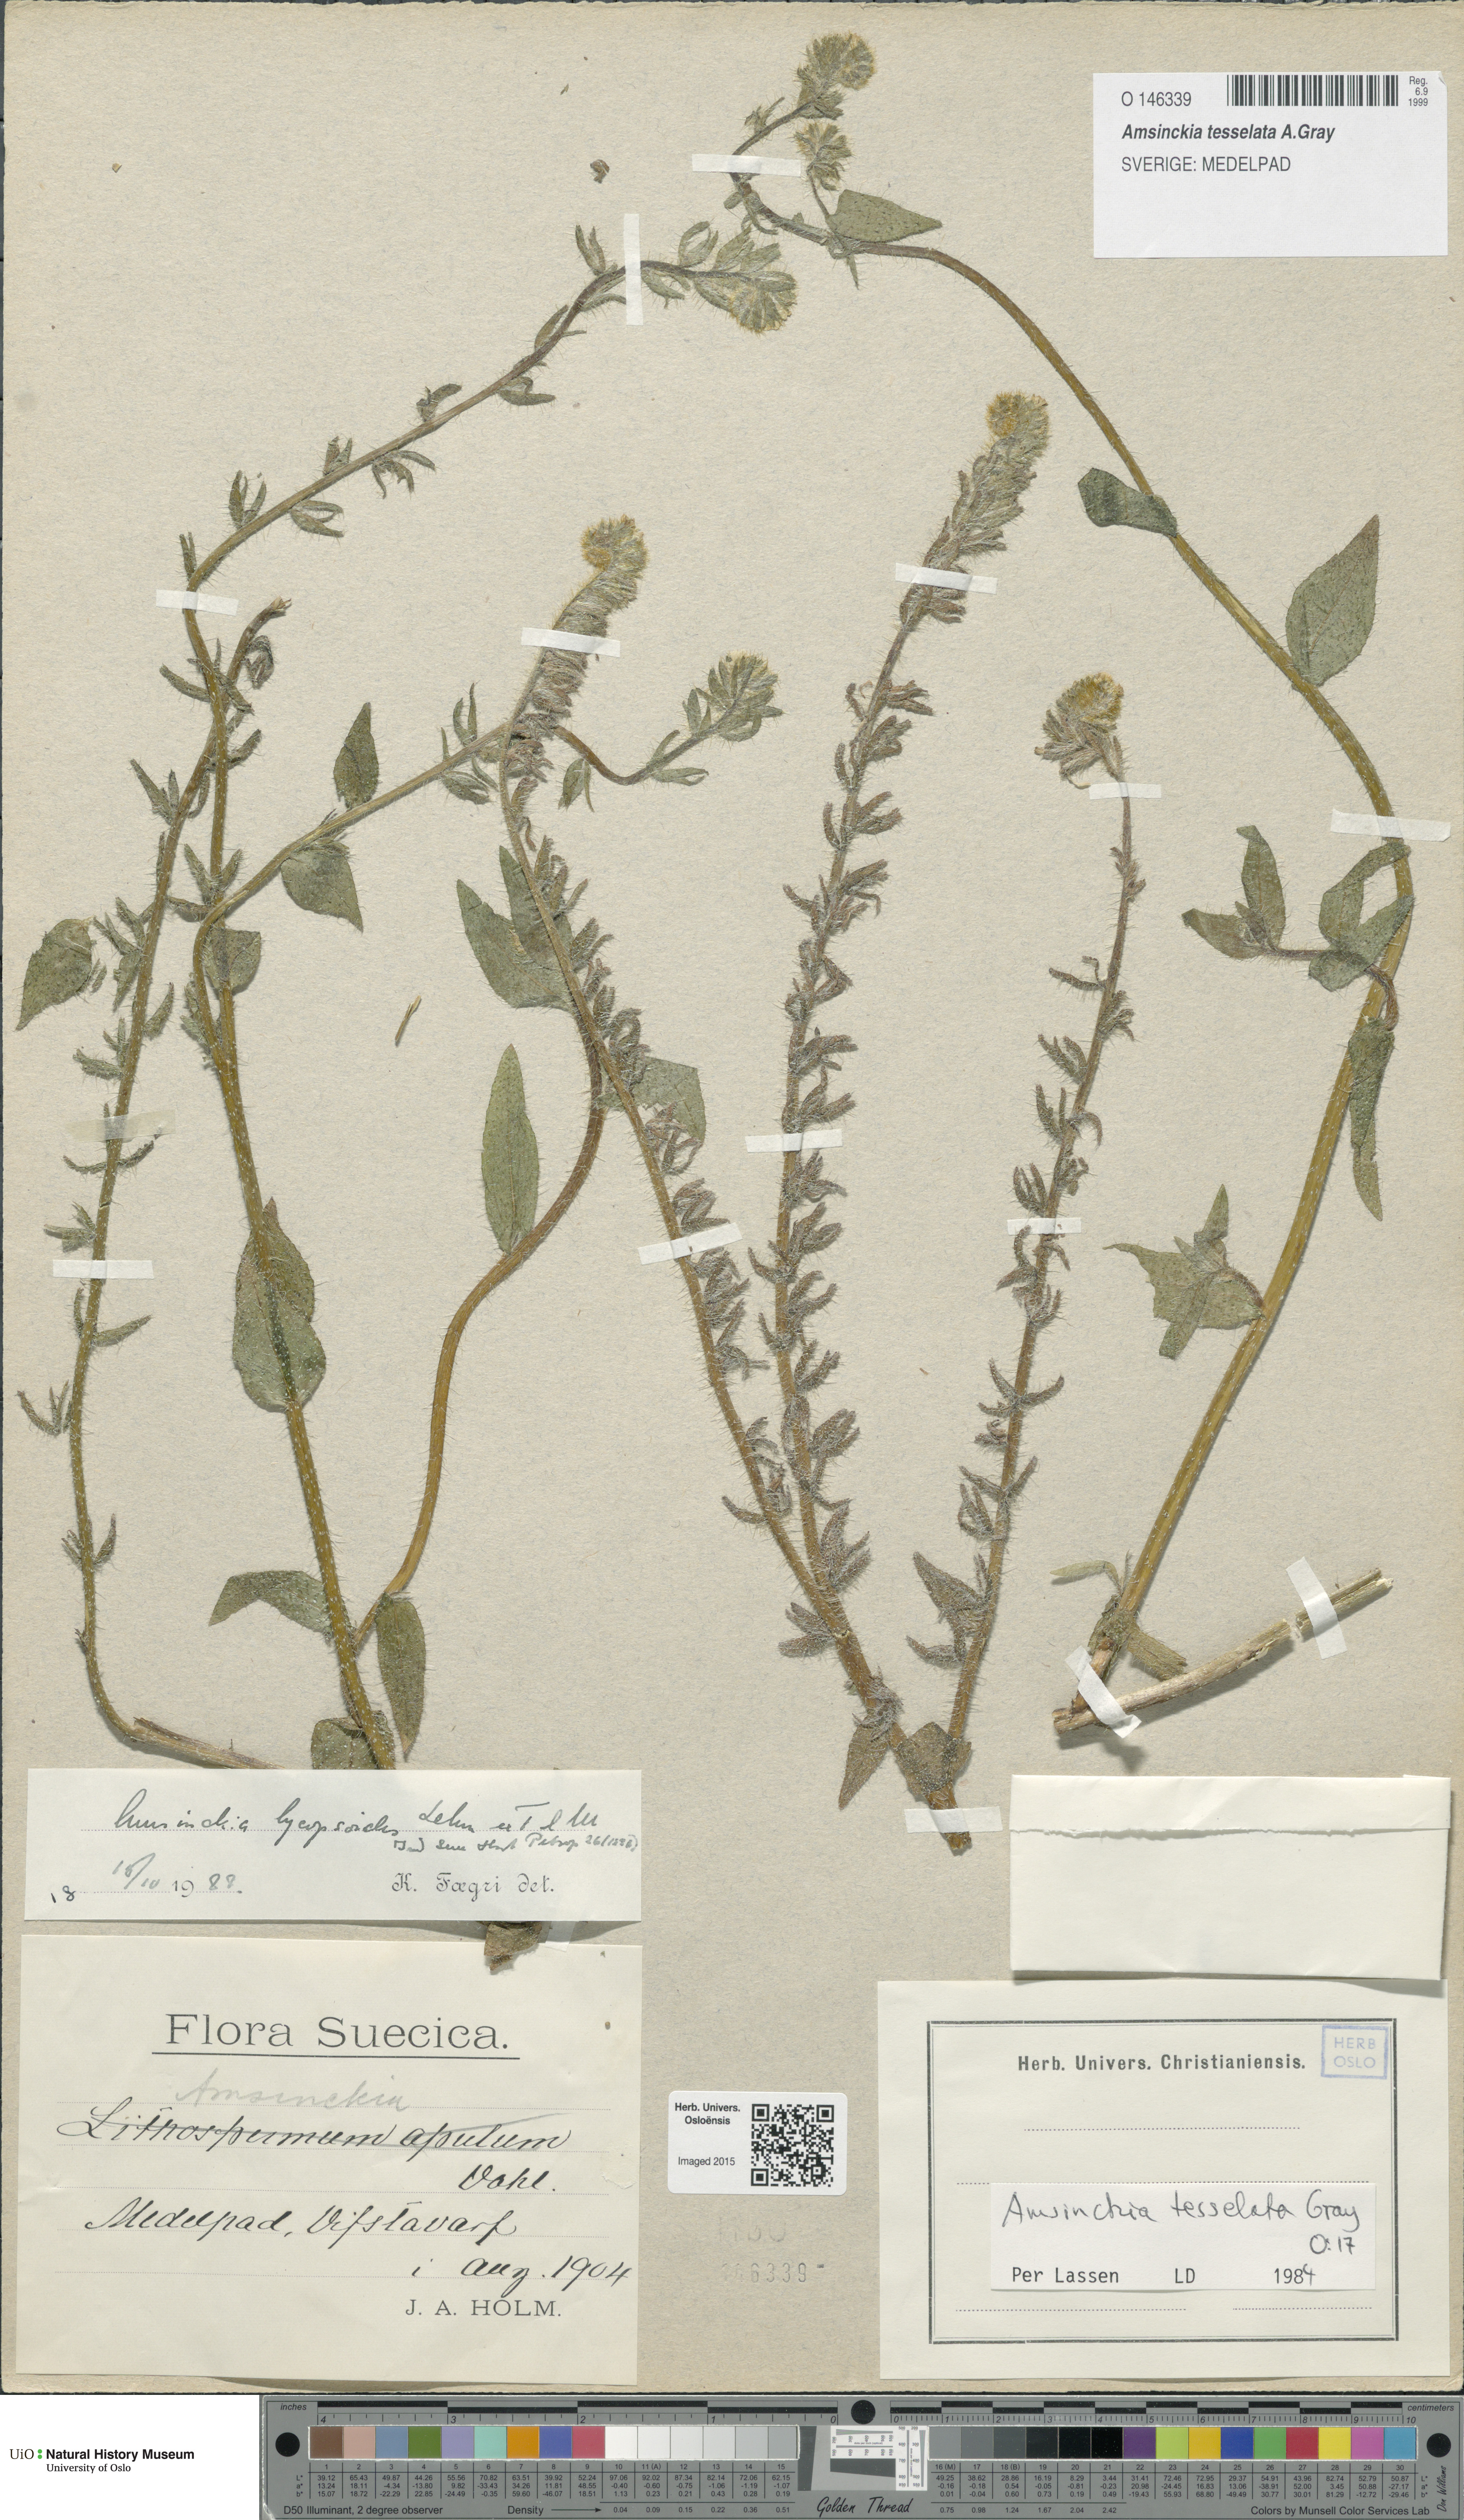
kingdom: Plantae
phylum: Tracheophyta
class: Magnoliopsida
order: Boraginales
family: Boraginaceae
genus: Amsinckia
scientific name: Amsinckia tessellata
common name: Tessellate fiddleneck
